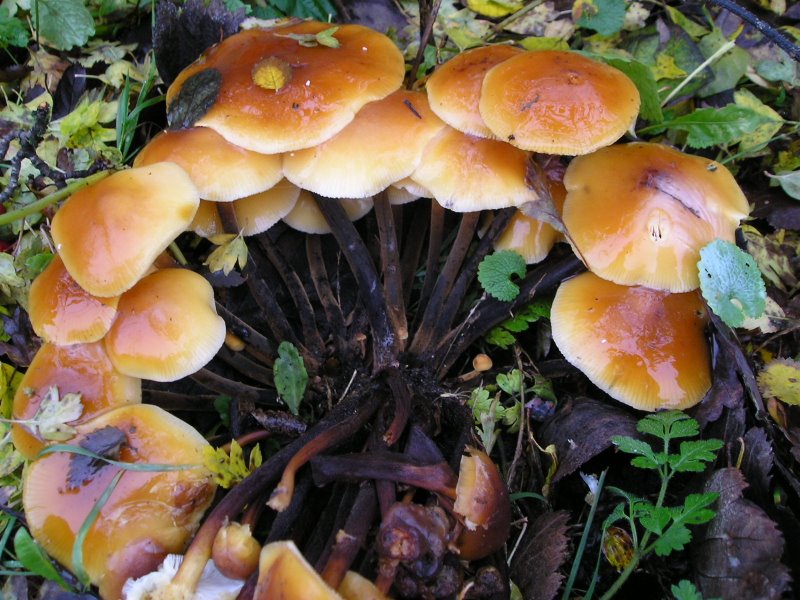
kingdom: Fungi
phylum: Basidiomycota
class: Agaricomycetes
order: Agaricales
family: Physalacriaceae
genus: Flammulina
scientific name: Flammulina velutipes
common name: gul fløjlsfod
